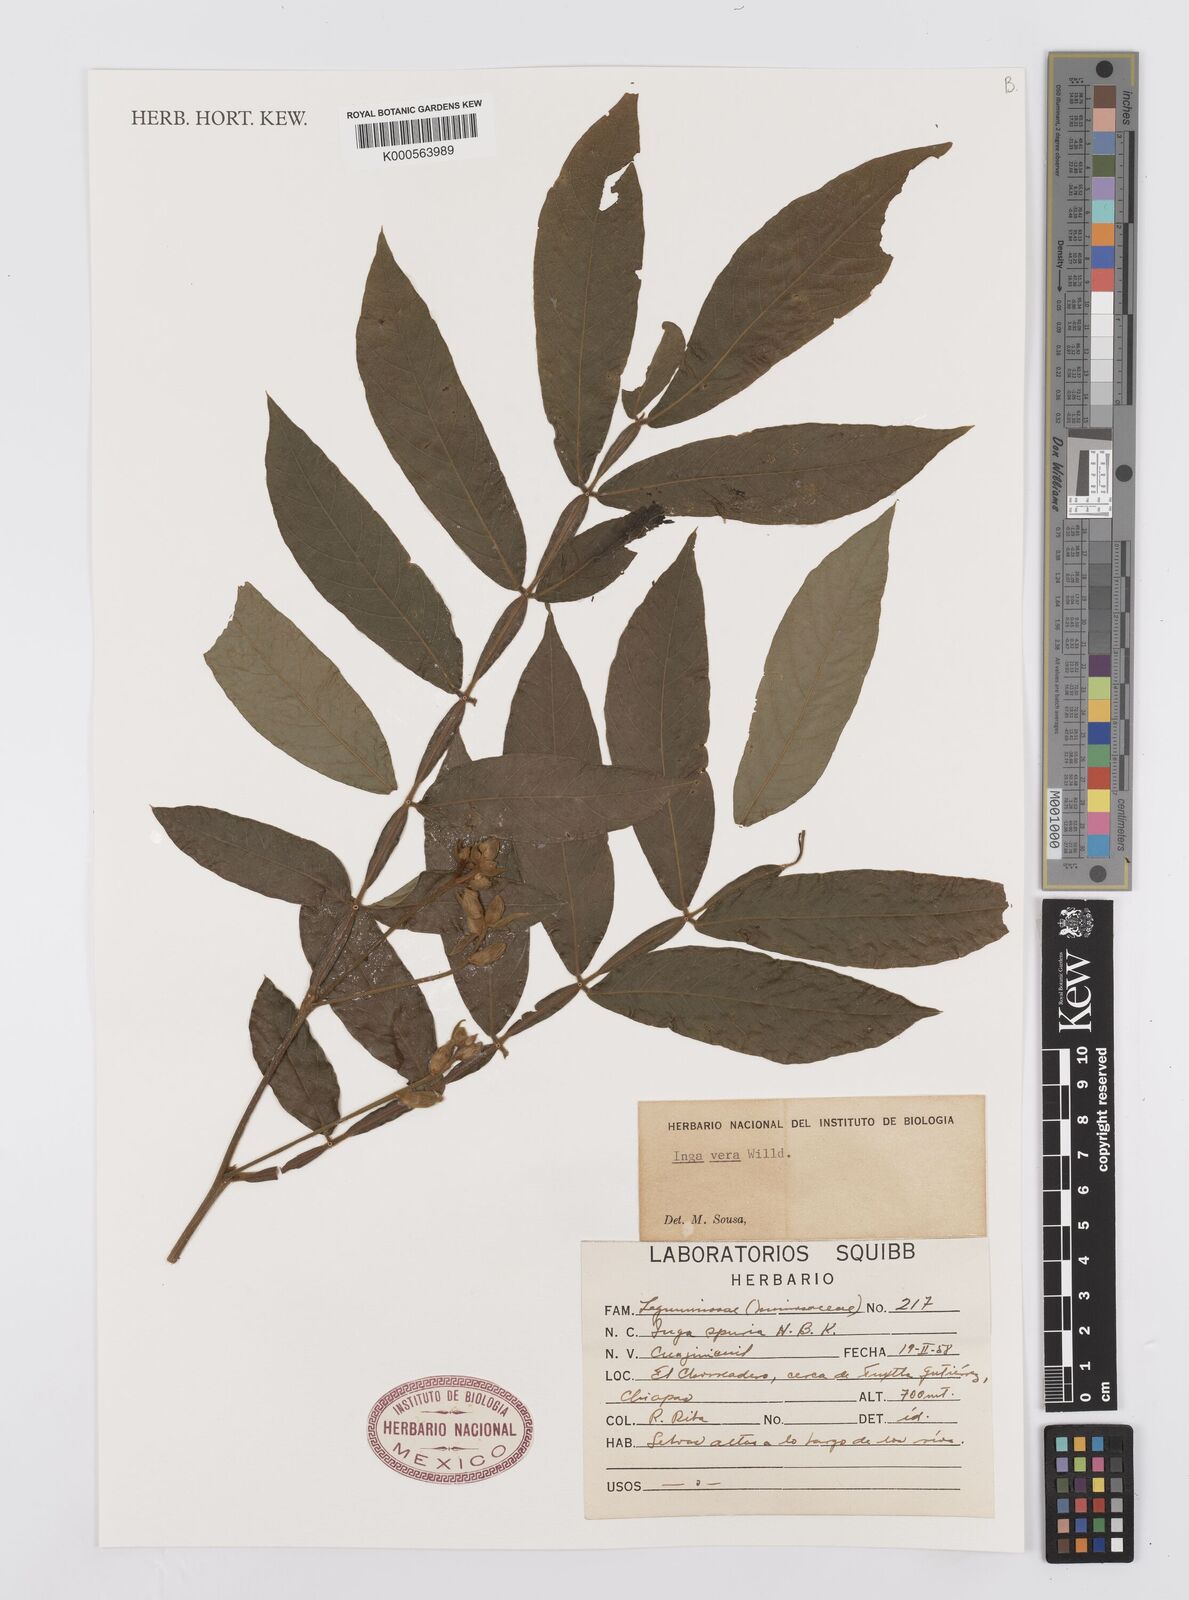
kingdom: Plantae
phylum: Tracheophyta
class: Magnoliopsida
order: Fabales
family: Fabaceae
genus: Inga
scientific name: Inga vera
